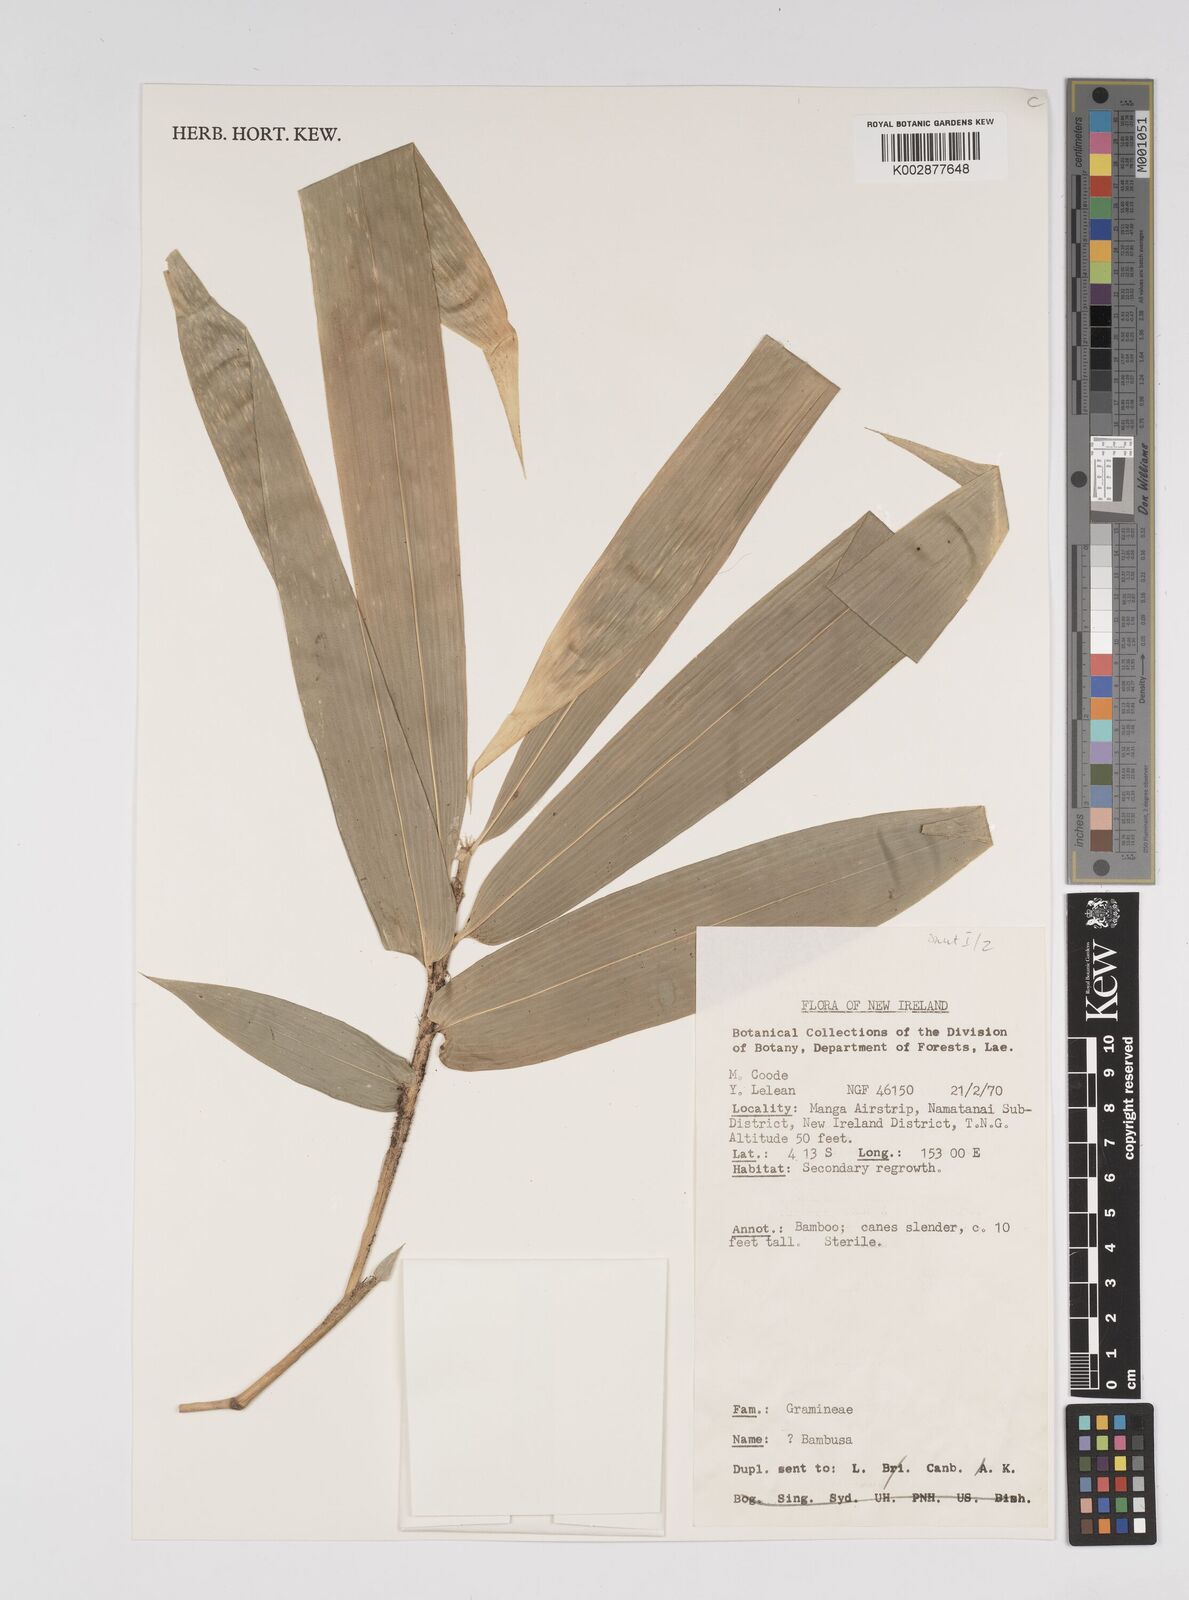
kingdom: Plantae
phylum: Tracheophyta
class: Liliopsida
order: Poales
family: Poaceae
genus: Bambusa
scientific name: Bambusa
